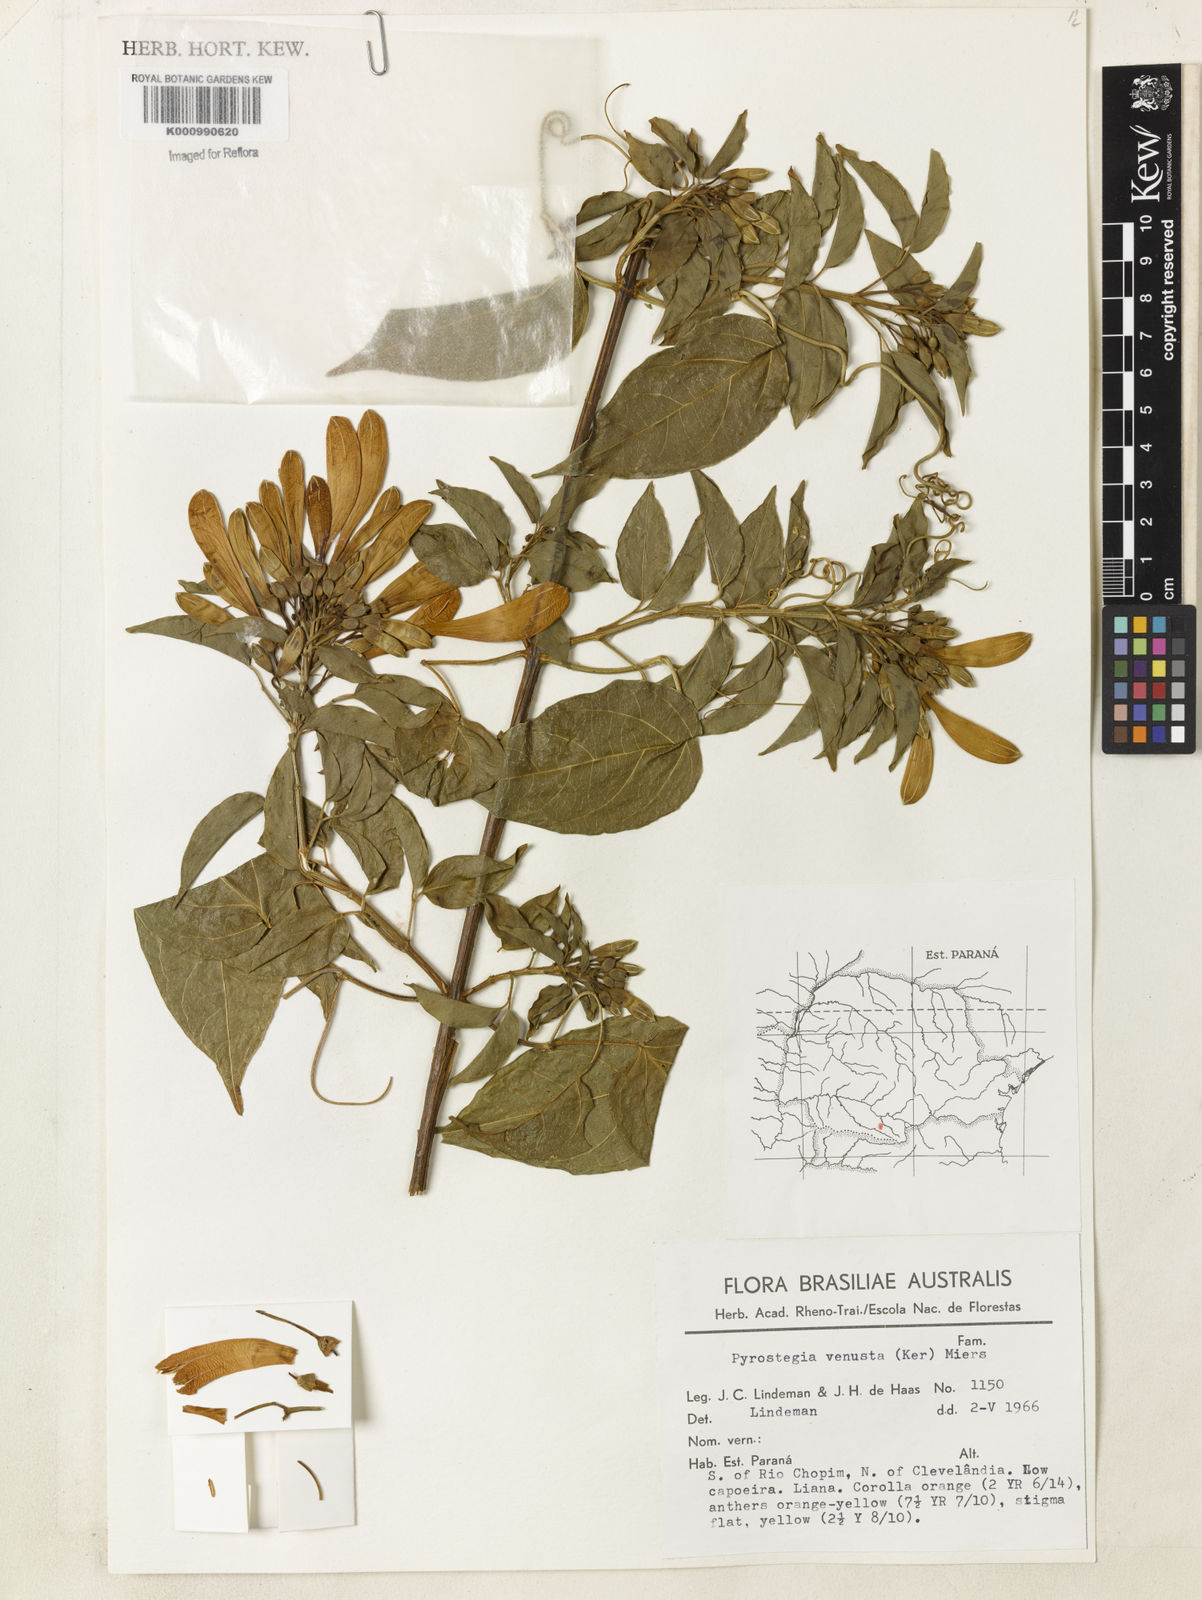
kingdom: Plantae
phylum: Tracheophyta
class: Magnoliopsida
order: Lamiales
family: Bignoniaceae
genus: Pyrostegia
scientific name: Pyrostegia venusta
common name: Flamevine
